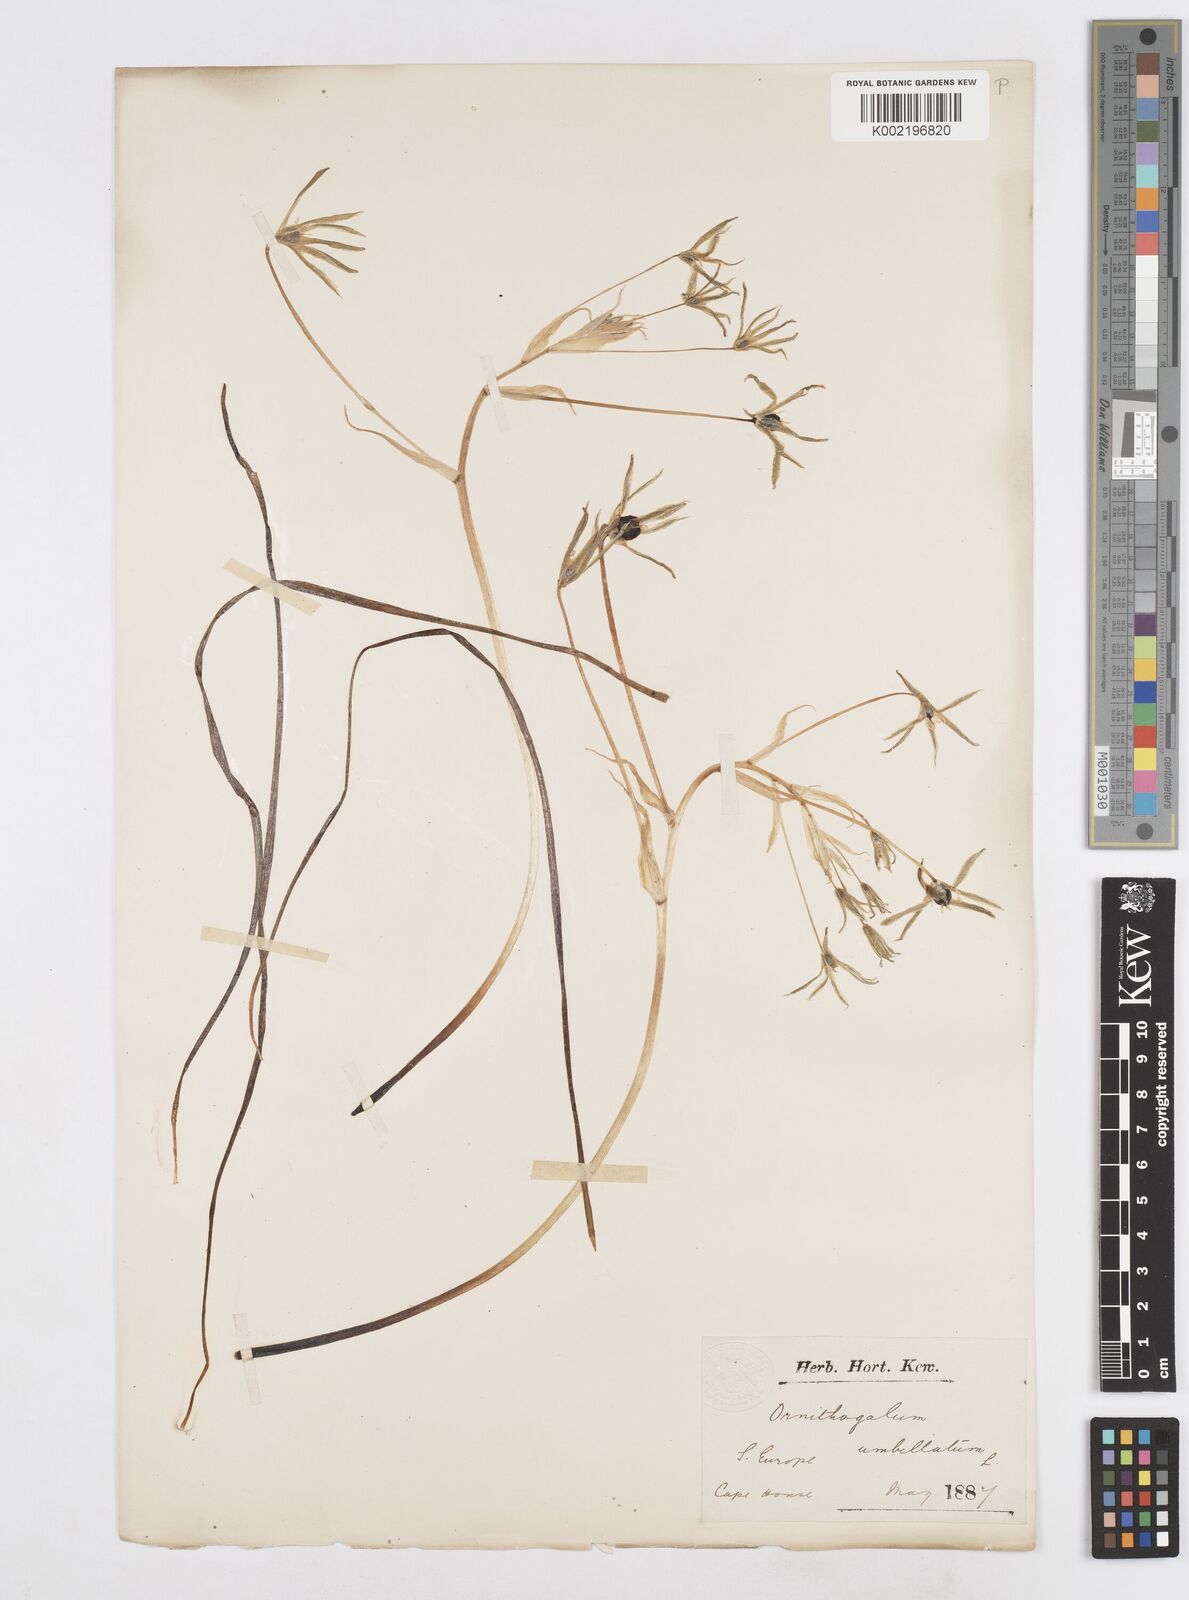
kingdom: Plantae
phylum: Tracheophyta
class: Liliopsida
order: Asparagales
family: Asparagaceae
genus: Ornithogalum
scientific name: Ornithogalum umbellatum
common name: Garden star-of-bethlehem
